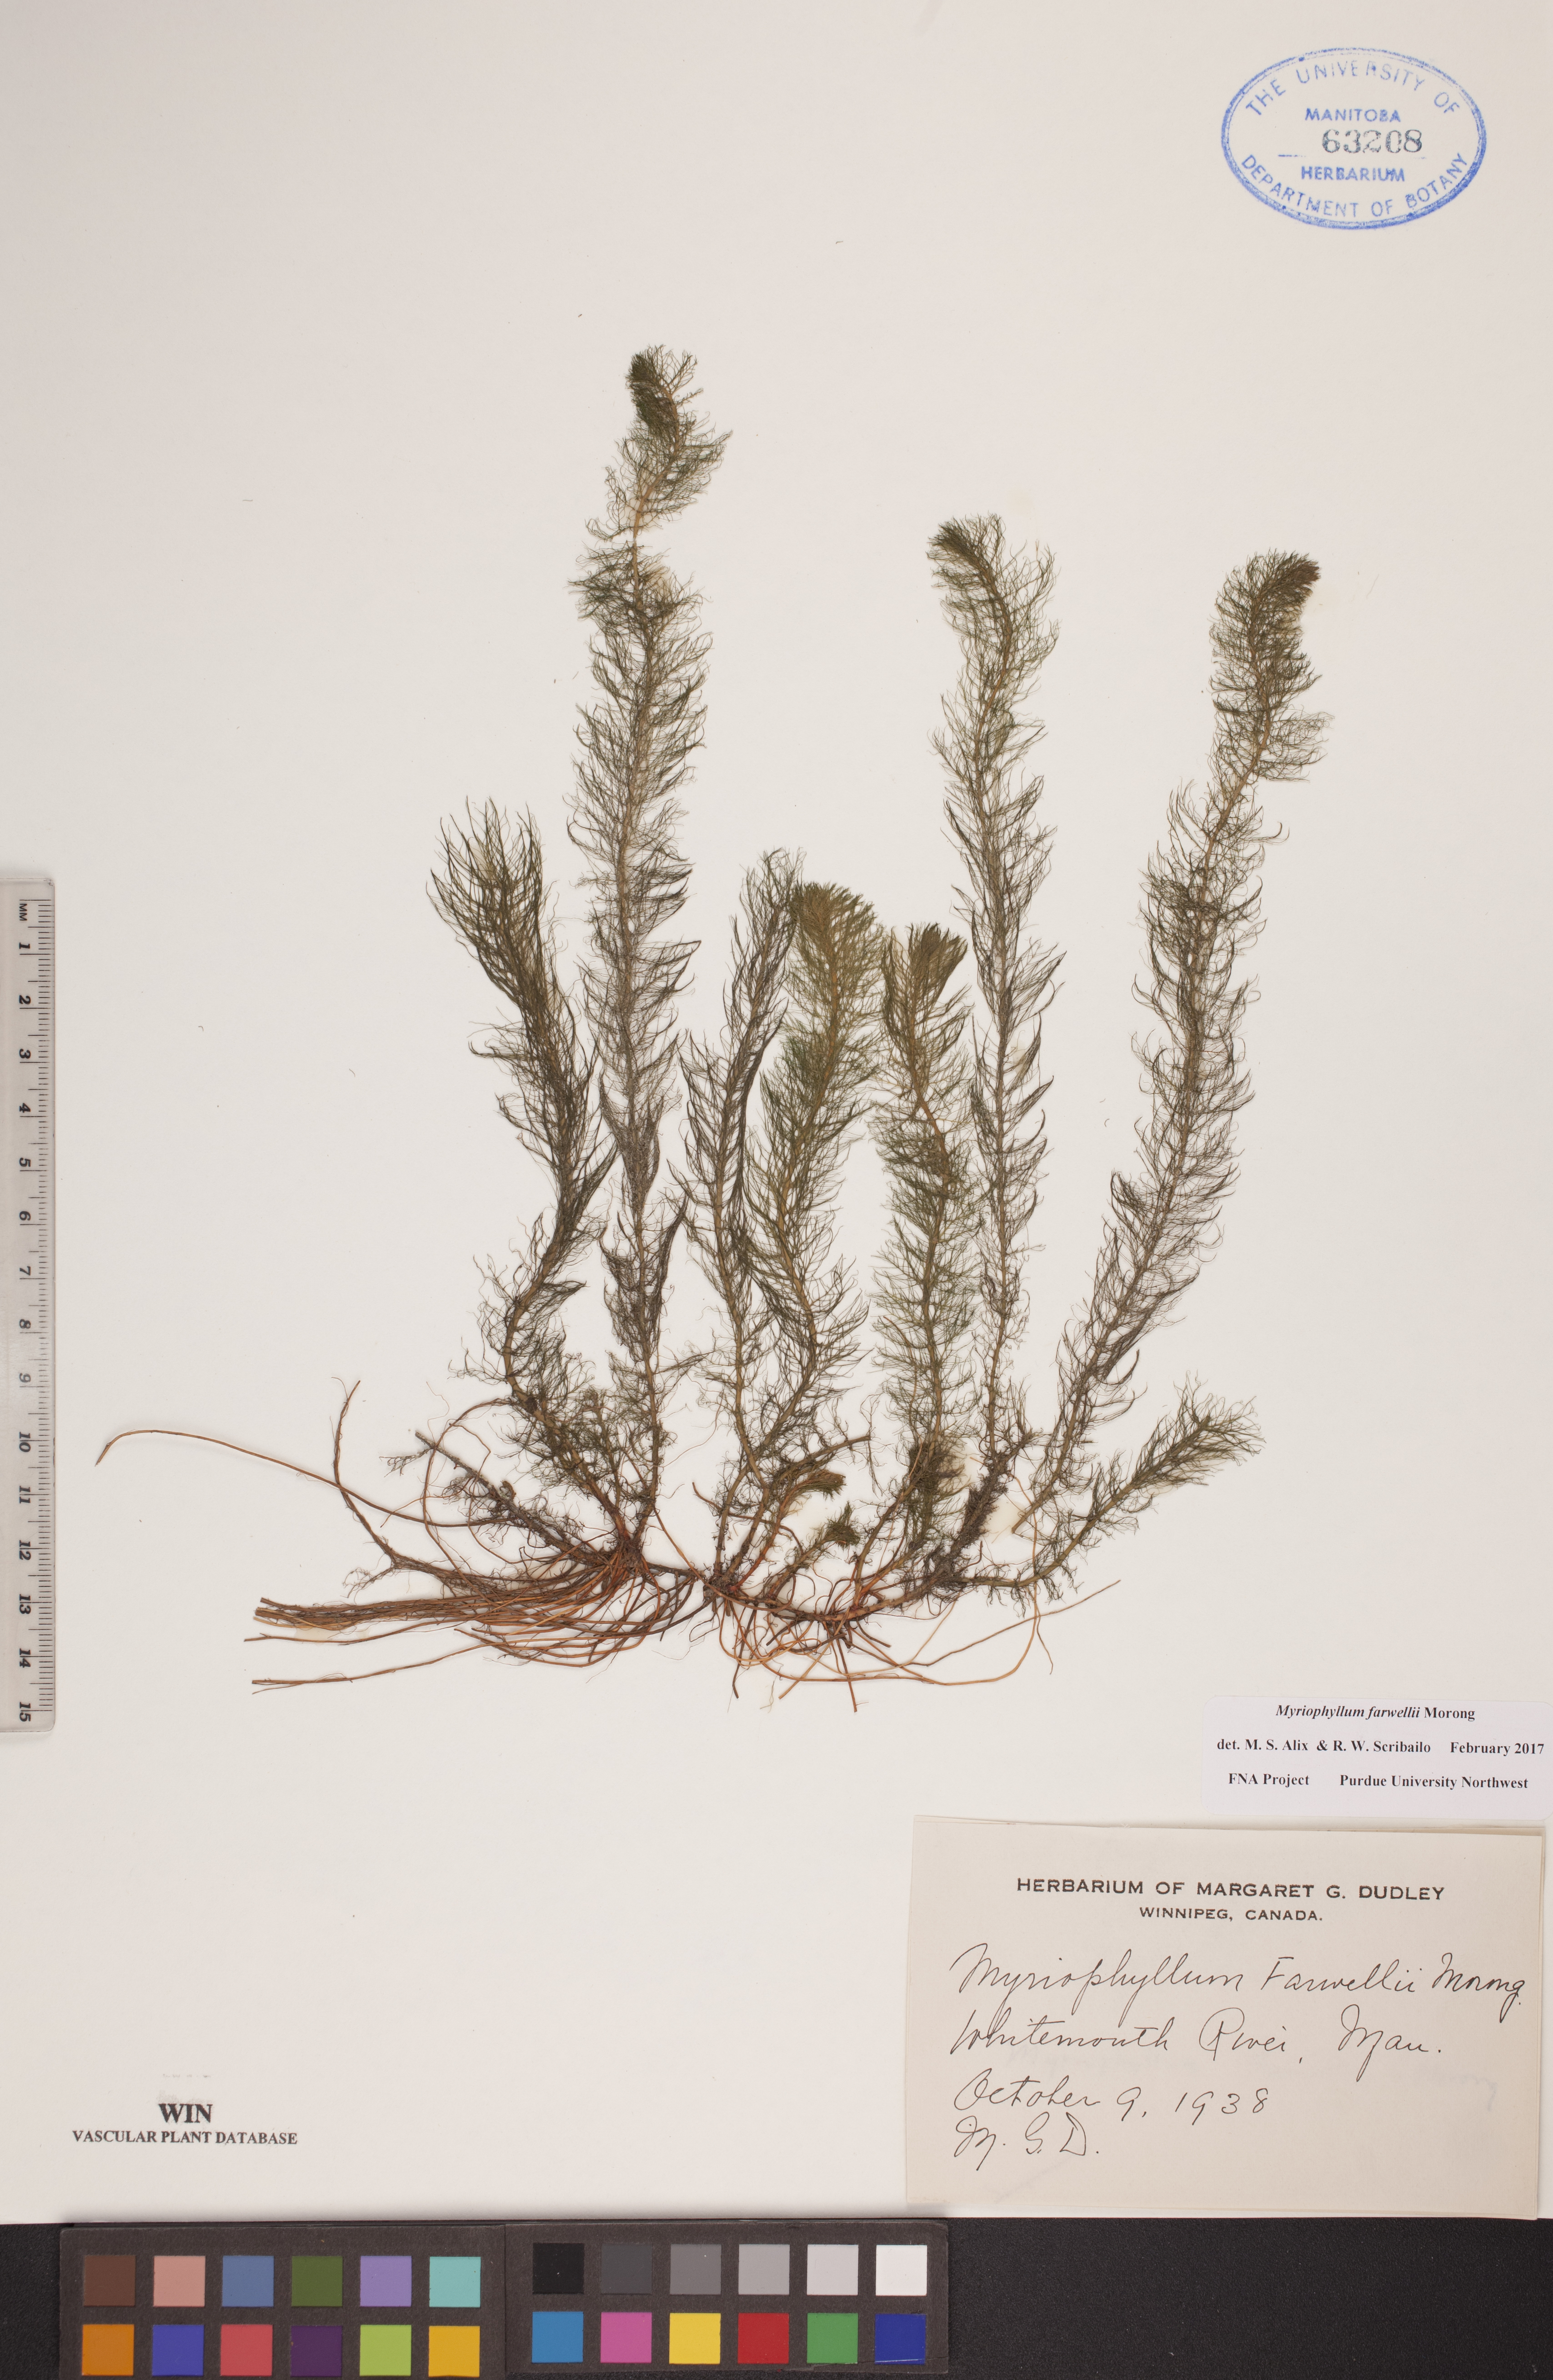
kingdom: Plantae
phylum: Tracheophyta
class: Magnoliopsida
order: Saxifragales
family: Haloragaceae
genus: Myriophyllum
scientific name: Myriophyllum farwellii
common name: Farwell's water-milfoil
